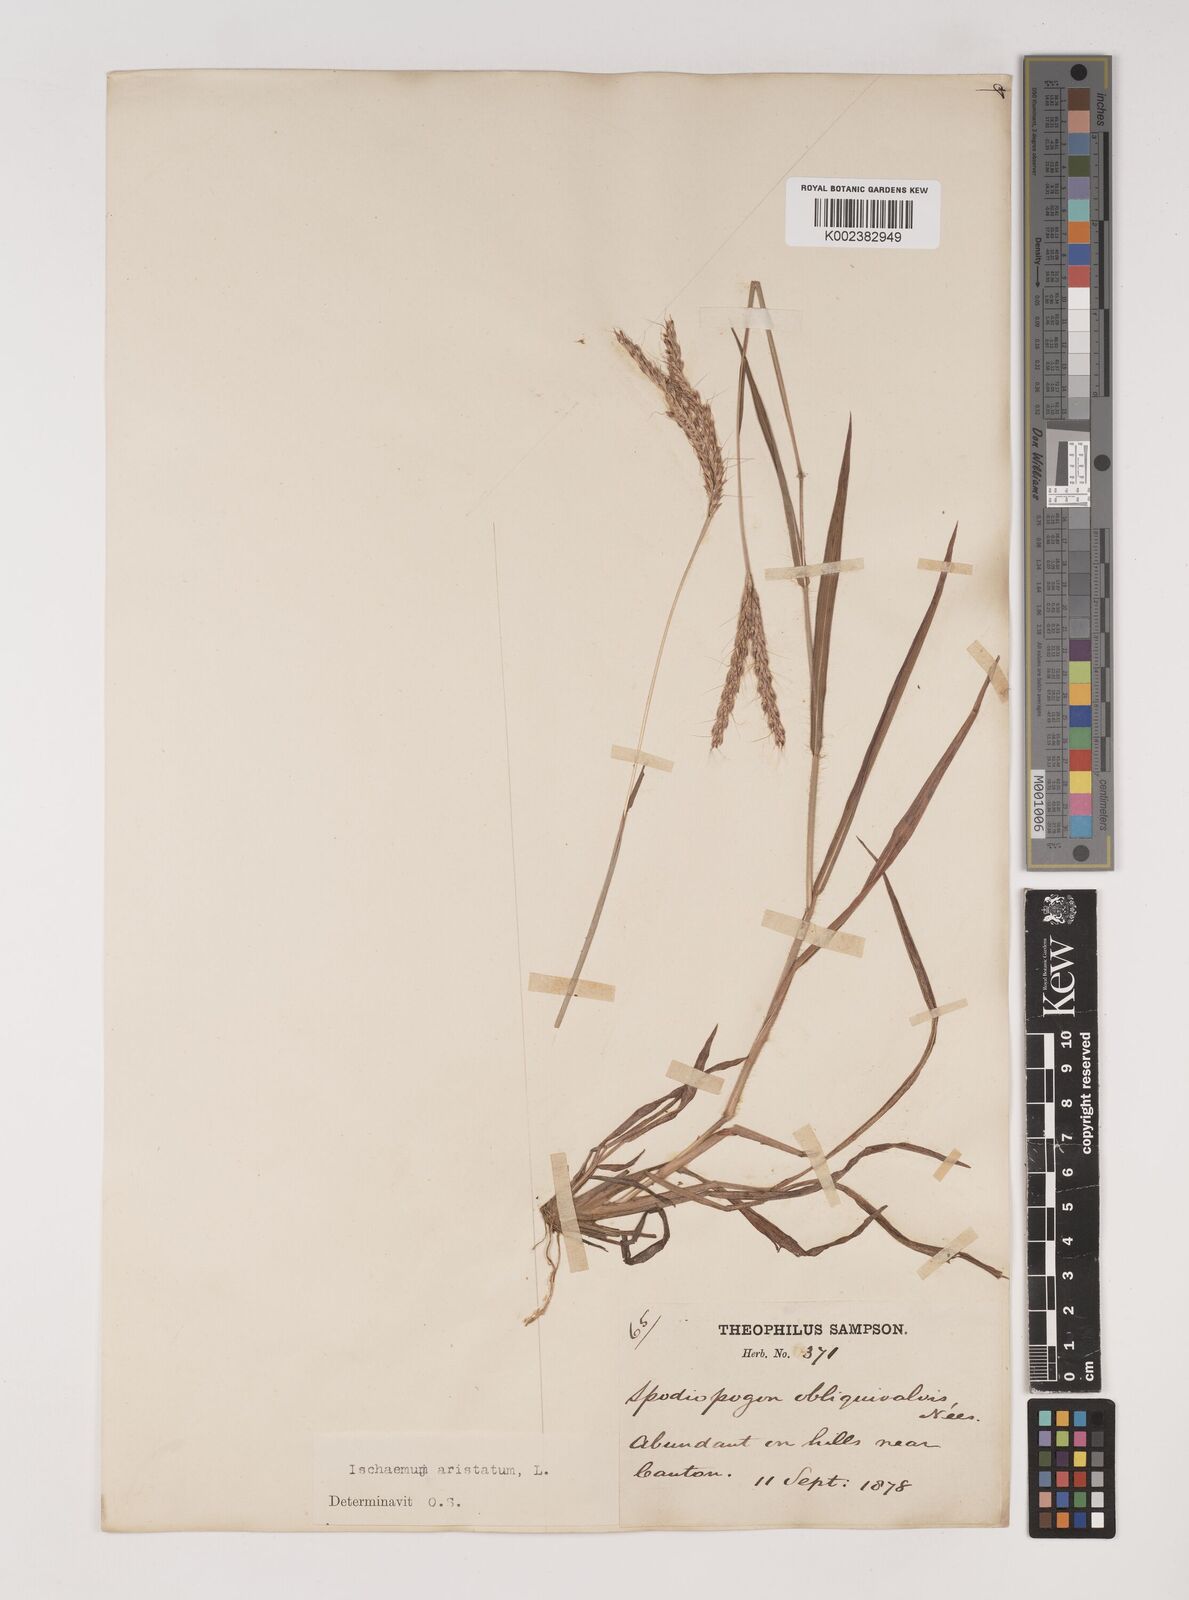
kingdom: Plantae
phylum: Tracheophyta
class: Liliopsida
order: Poales
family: Poaceae
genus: Ischaemum
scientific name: Ischaemum ciliare
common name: Grass
